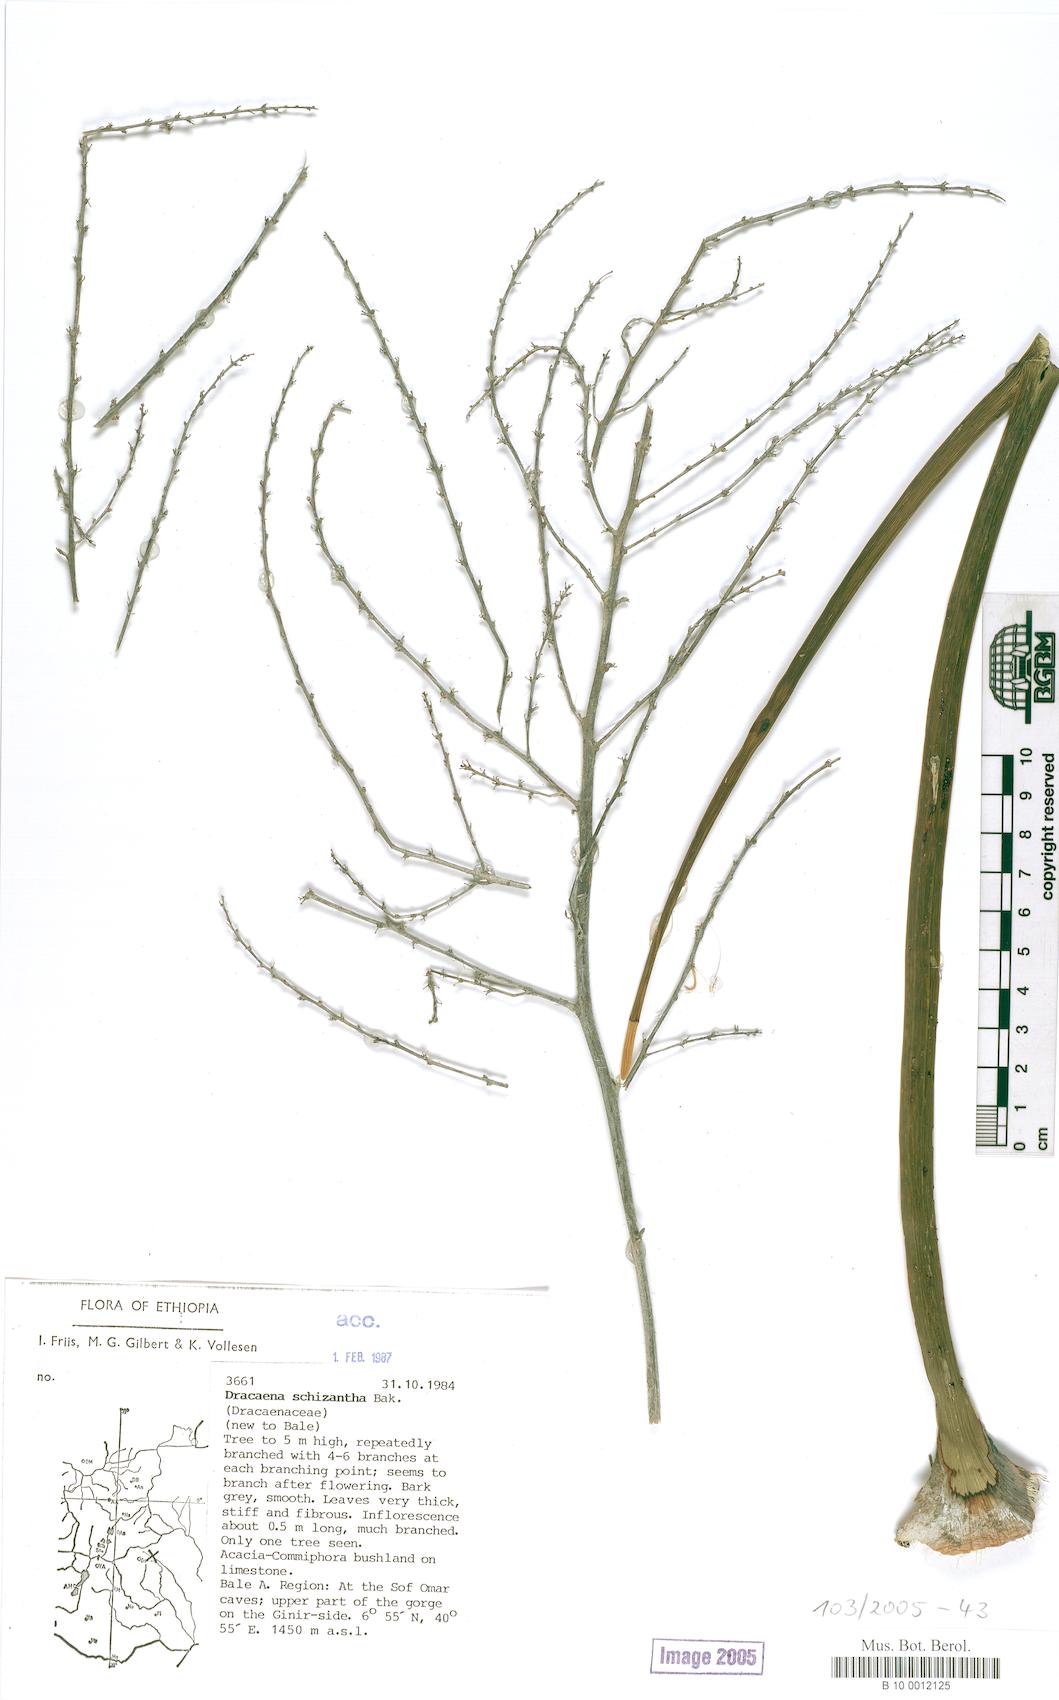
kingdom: Plantae
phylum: Tracheophyta
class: Liliopsida
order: Asparagales
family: Asparagaceae
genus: Dracaena
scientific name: Dracaena ombet
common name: Gabal elba dragon tree
